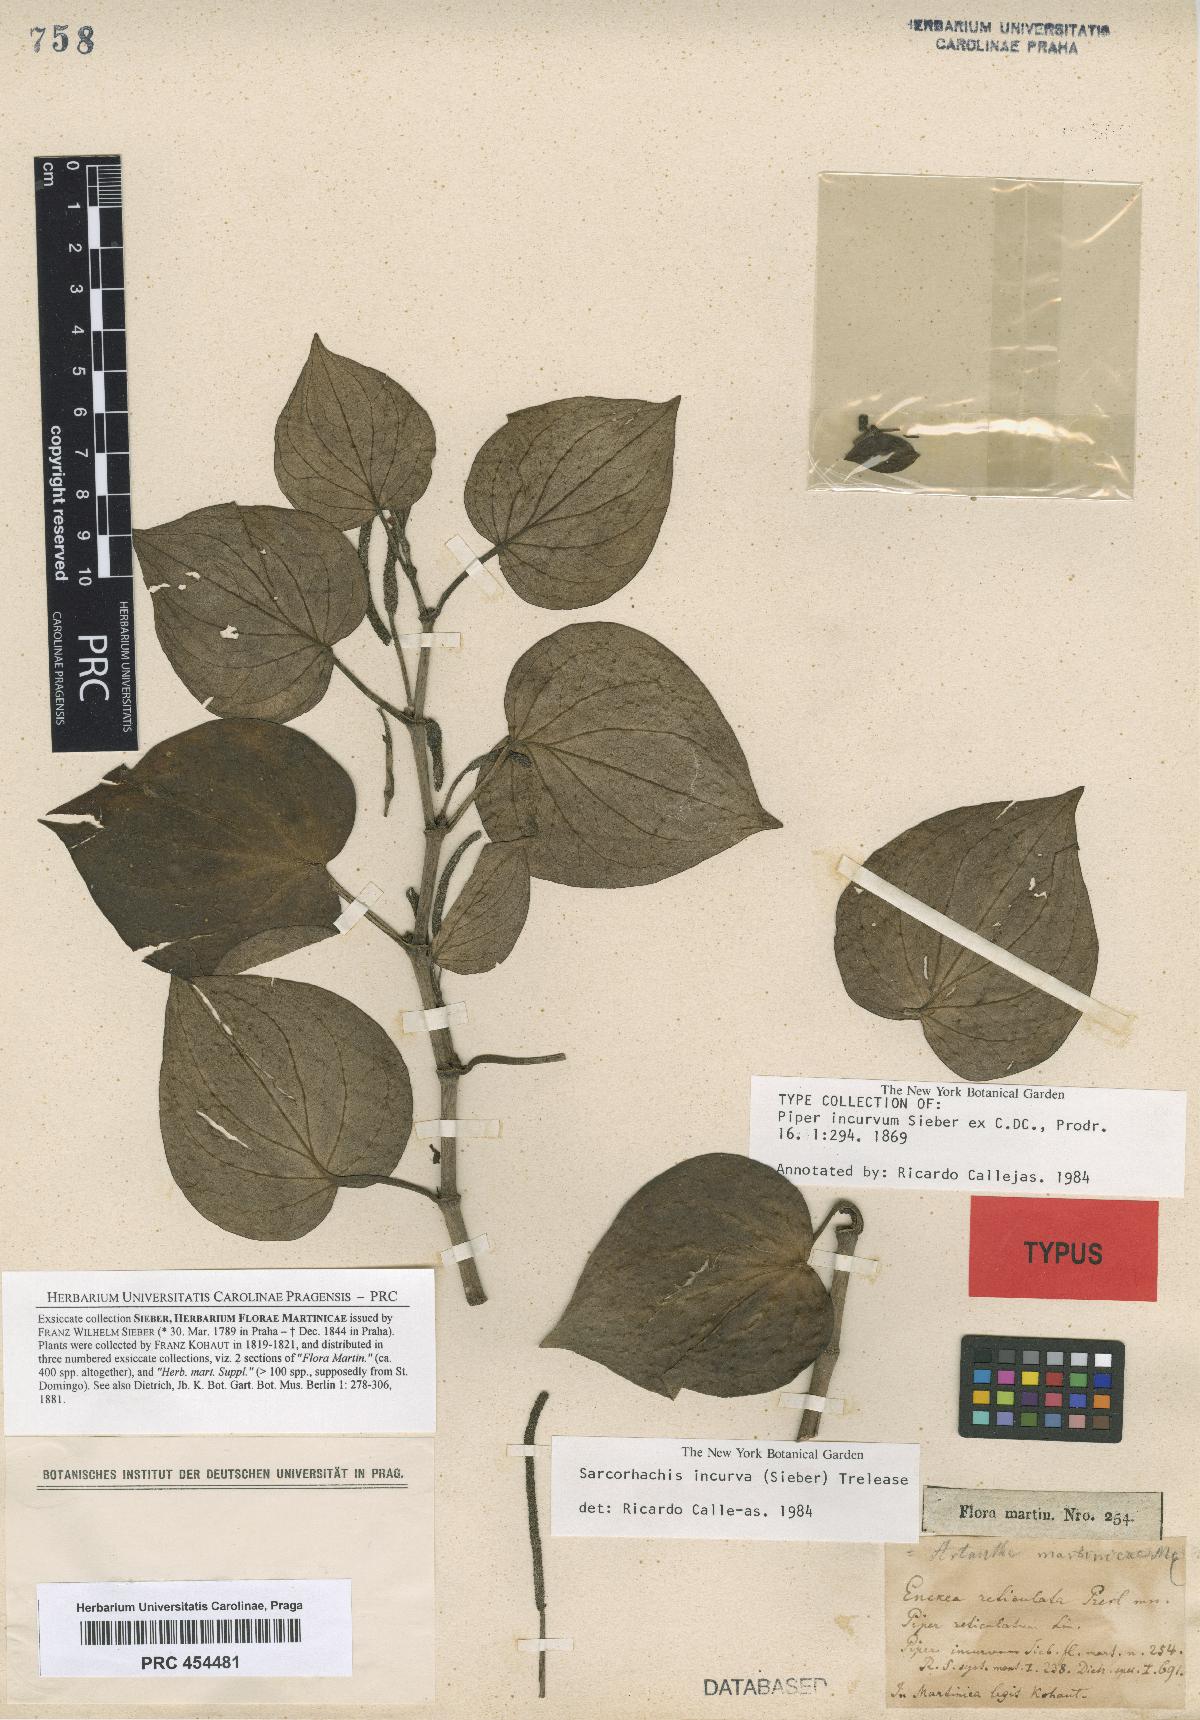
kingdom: Plantae
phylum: Tracheophyta
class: Magnoliopsida
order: Piperales
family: Piperaceae
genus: Peperomia
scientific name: Peperomia incana
